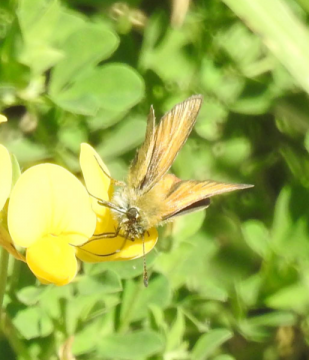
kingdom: Animalia
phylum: Arthropoda
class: Insecta
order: Lepidoptera
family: Hesperiidae
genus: Thymelicus
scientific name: Thymelicus lineola
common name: European Skipper
